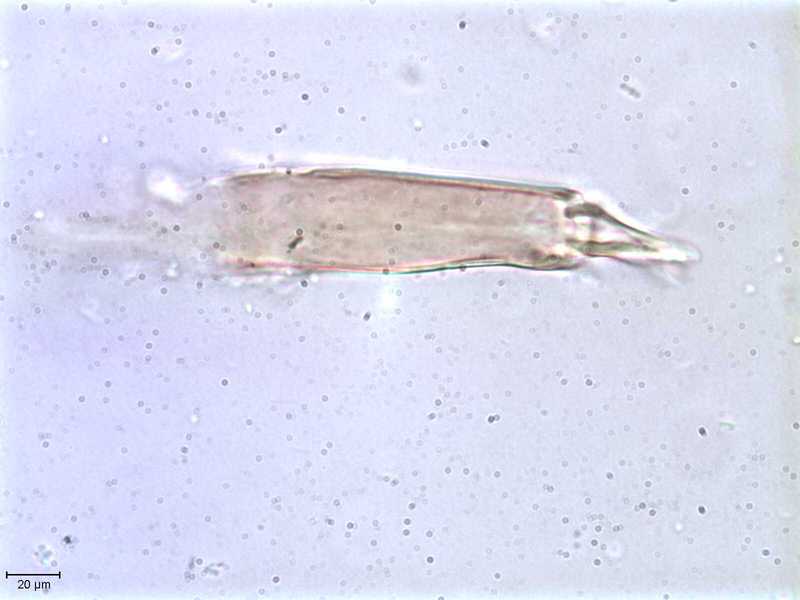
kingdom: Animalia
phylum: Arthropoda
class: Arachnida
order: Mesostigmata
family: Halarachnidae
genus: Orthohalarachne
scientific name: Orthohalarachne letalis
